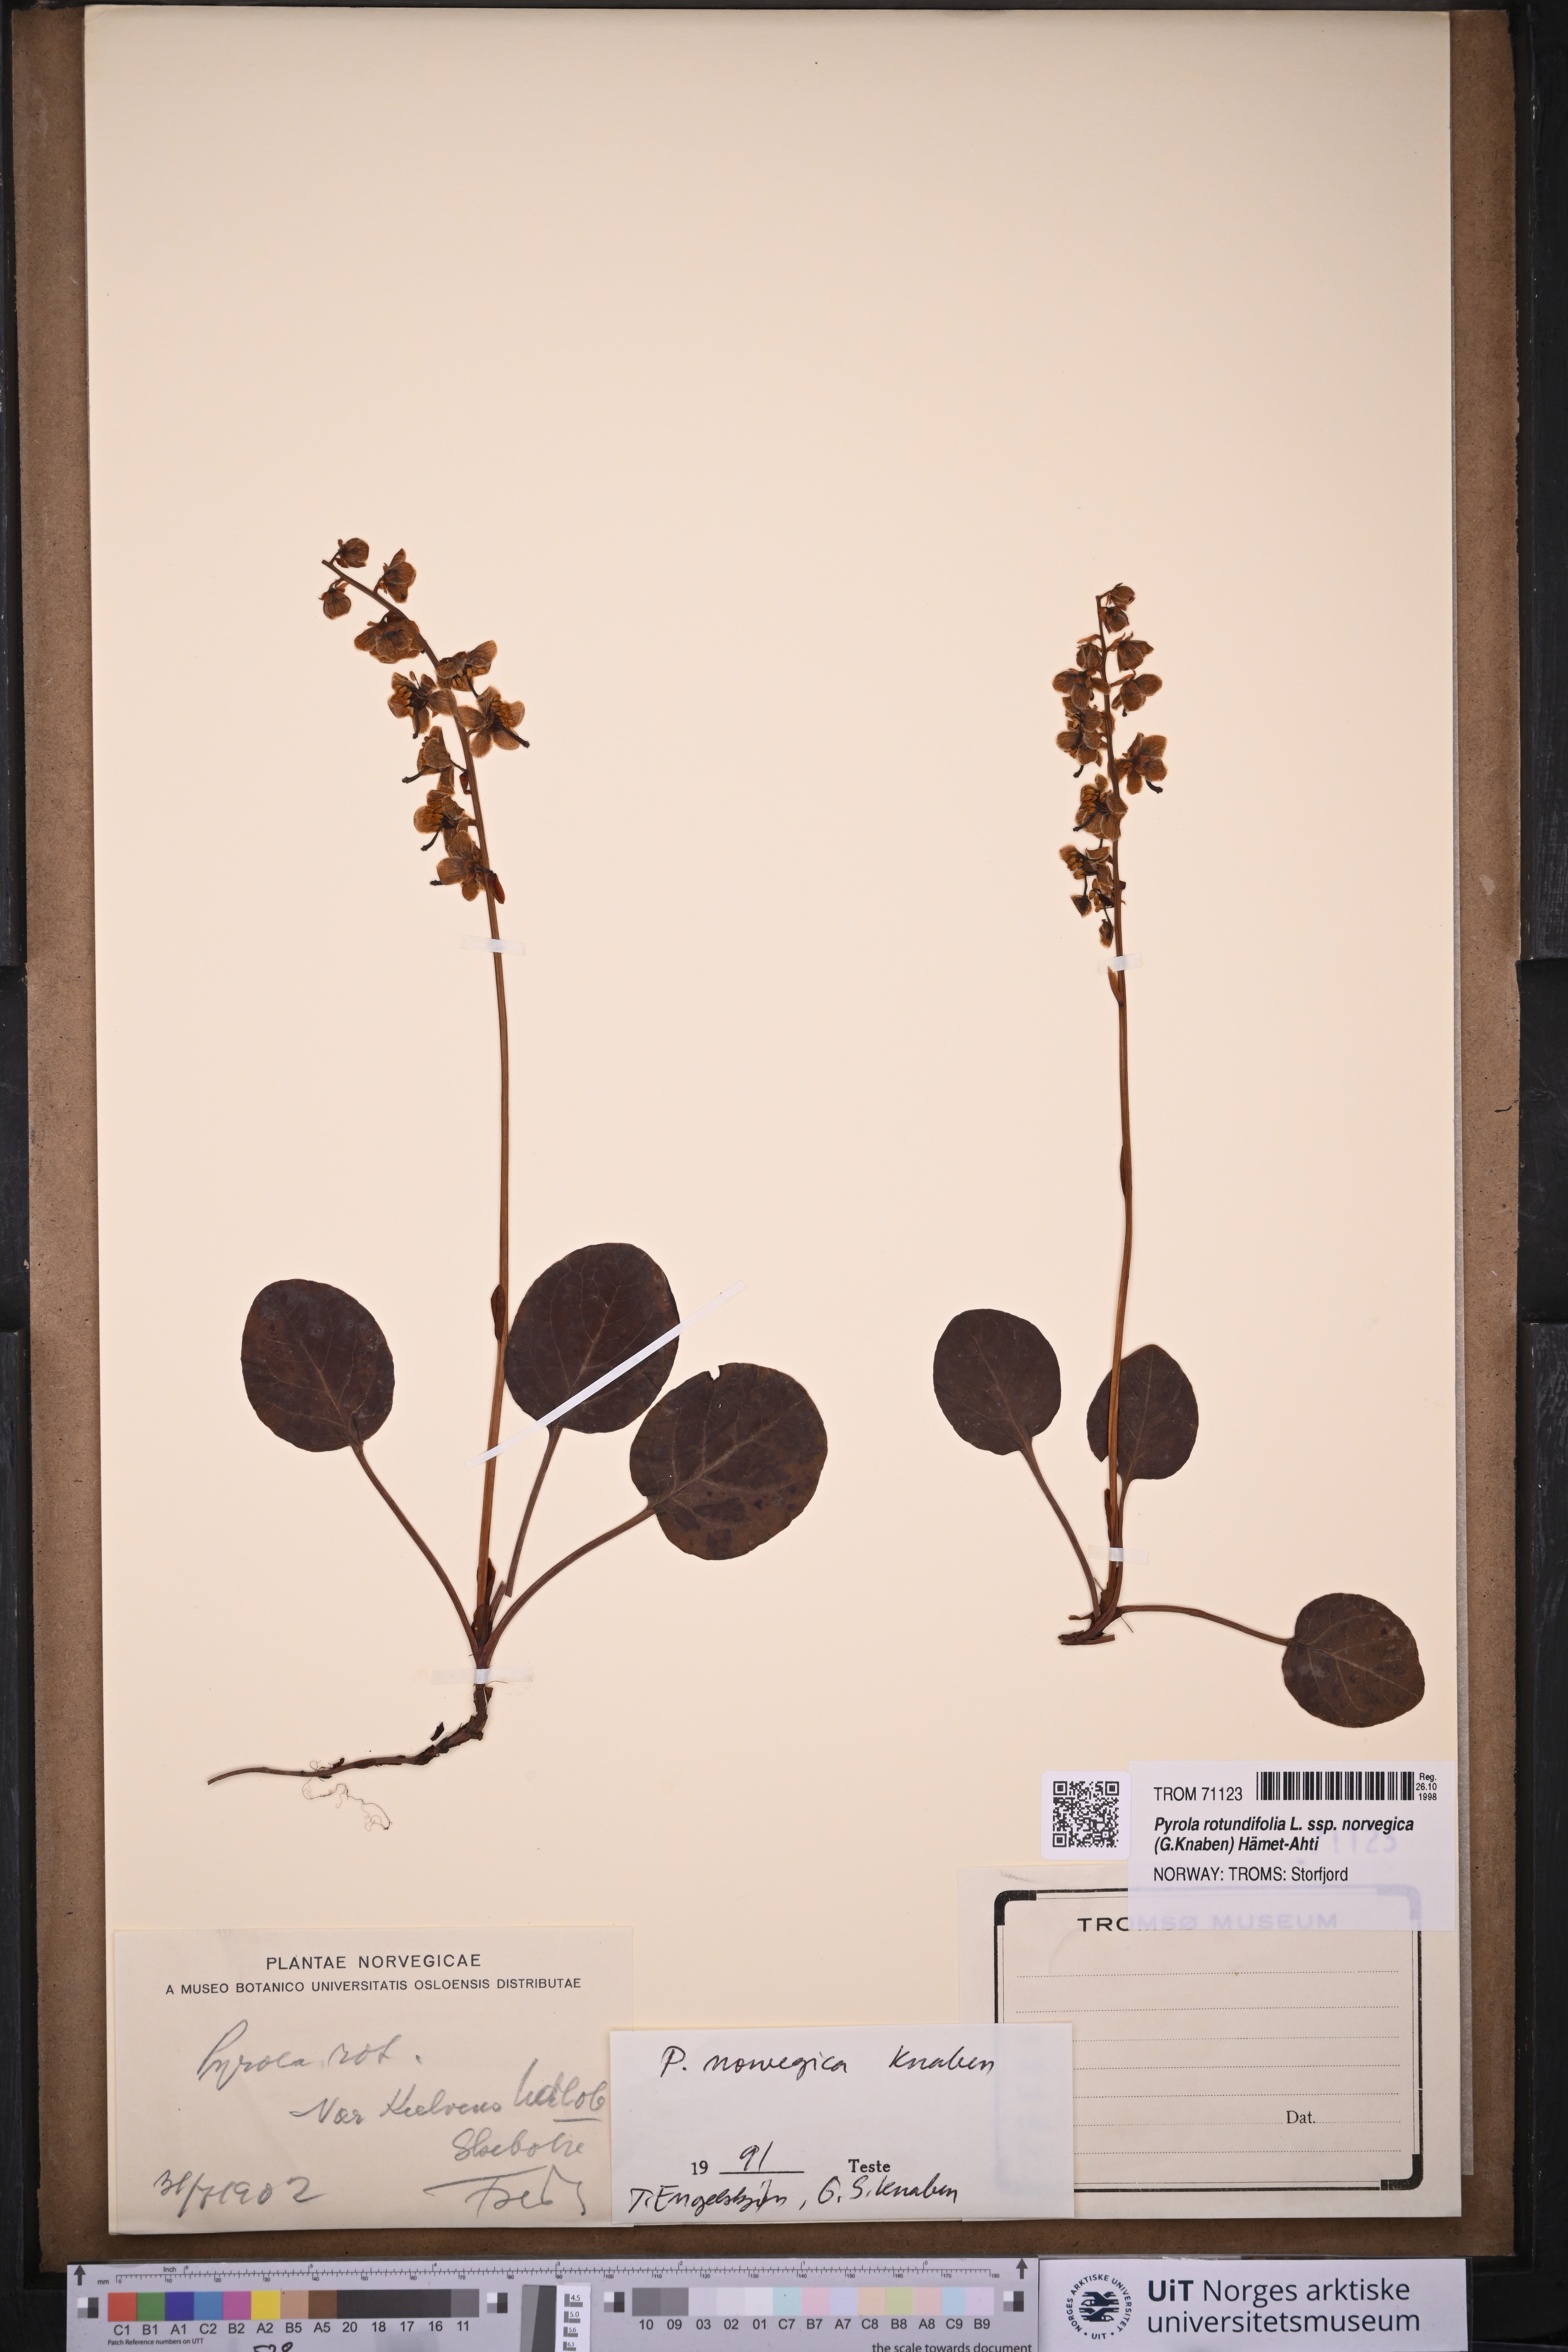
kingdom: Plantae
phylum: Tracheophyta
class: Magnoliopsida
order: Ericales
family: Ericaceae
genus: Pyrola
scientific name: Pyrola rotundifolia
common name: Round-leaved wintergreen
